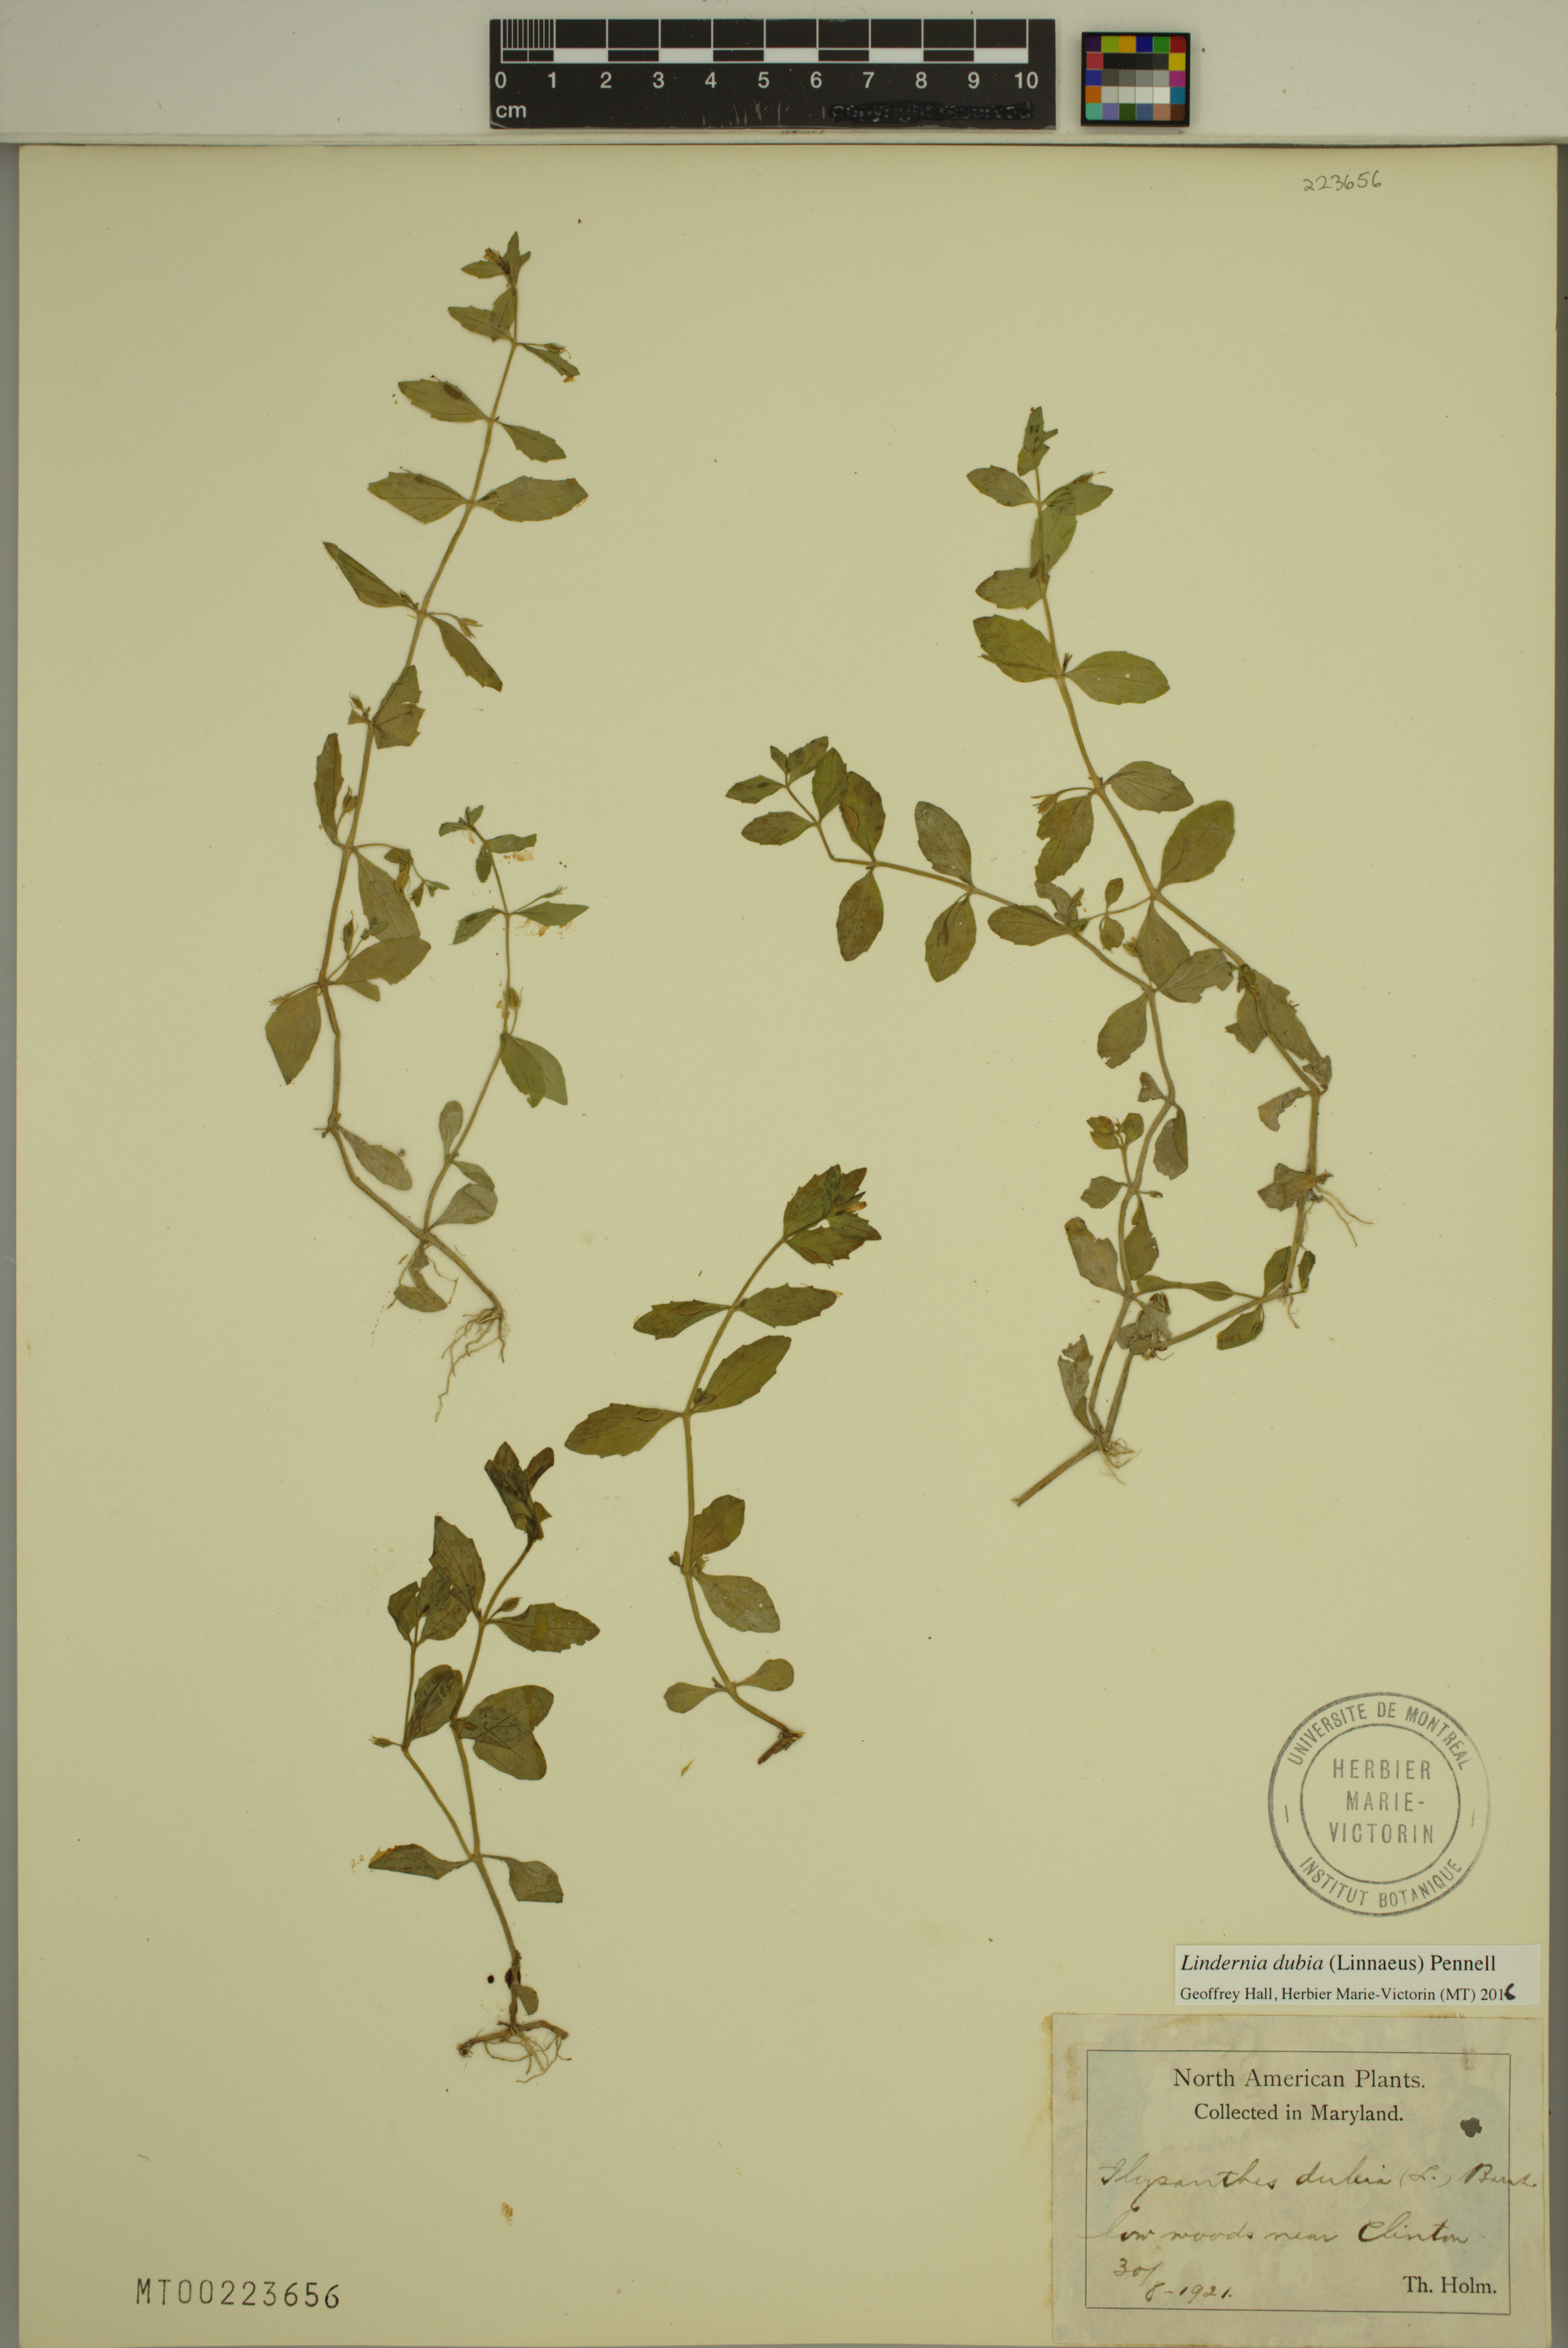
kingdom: Plantae
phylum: Tracheophyta
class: Magnoliopsida
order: Lamiales
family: Linderniaceae
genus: Lindernia
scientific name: Lindernia dubia
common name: Annual false pimpernel
